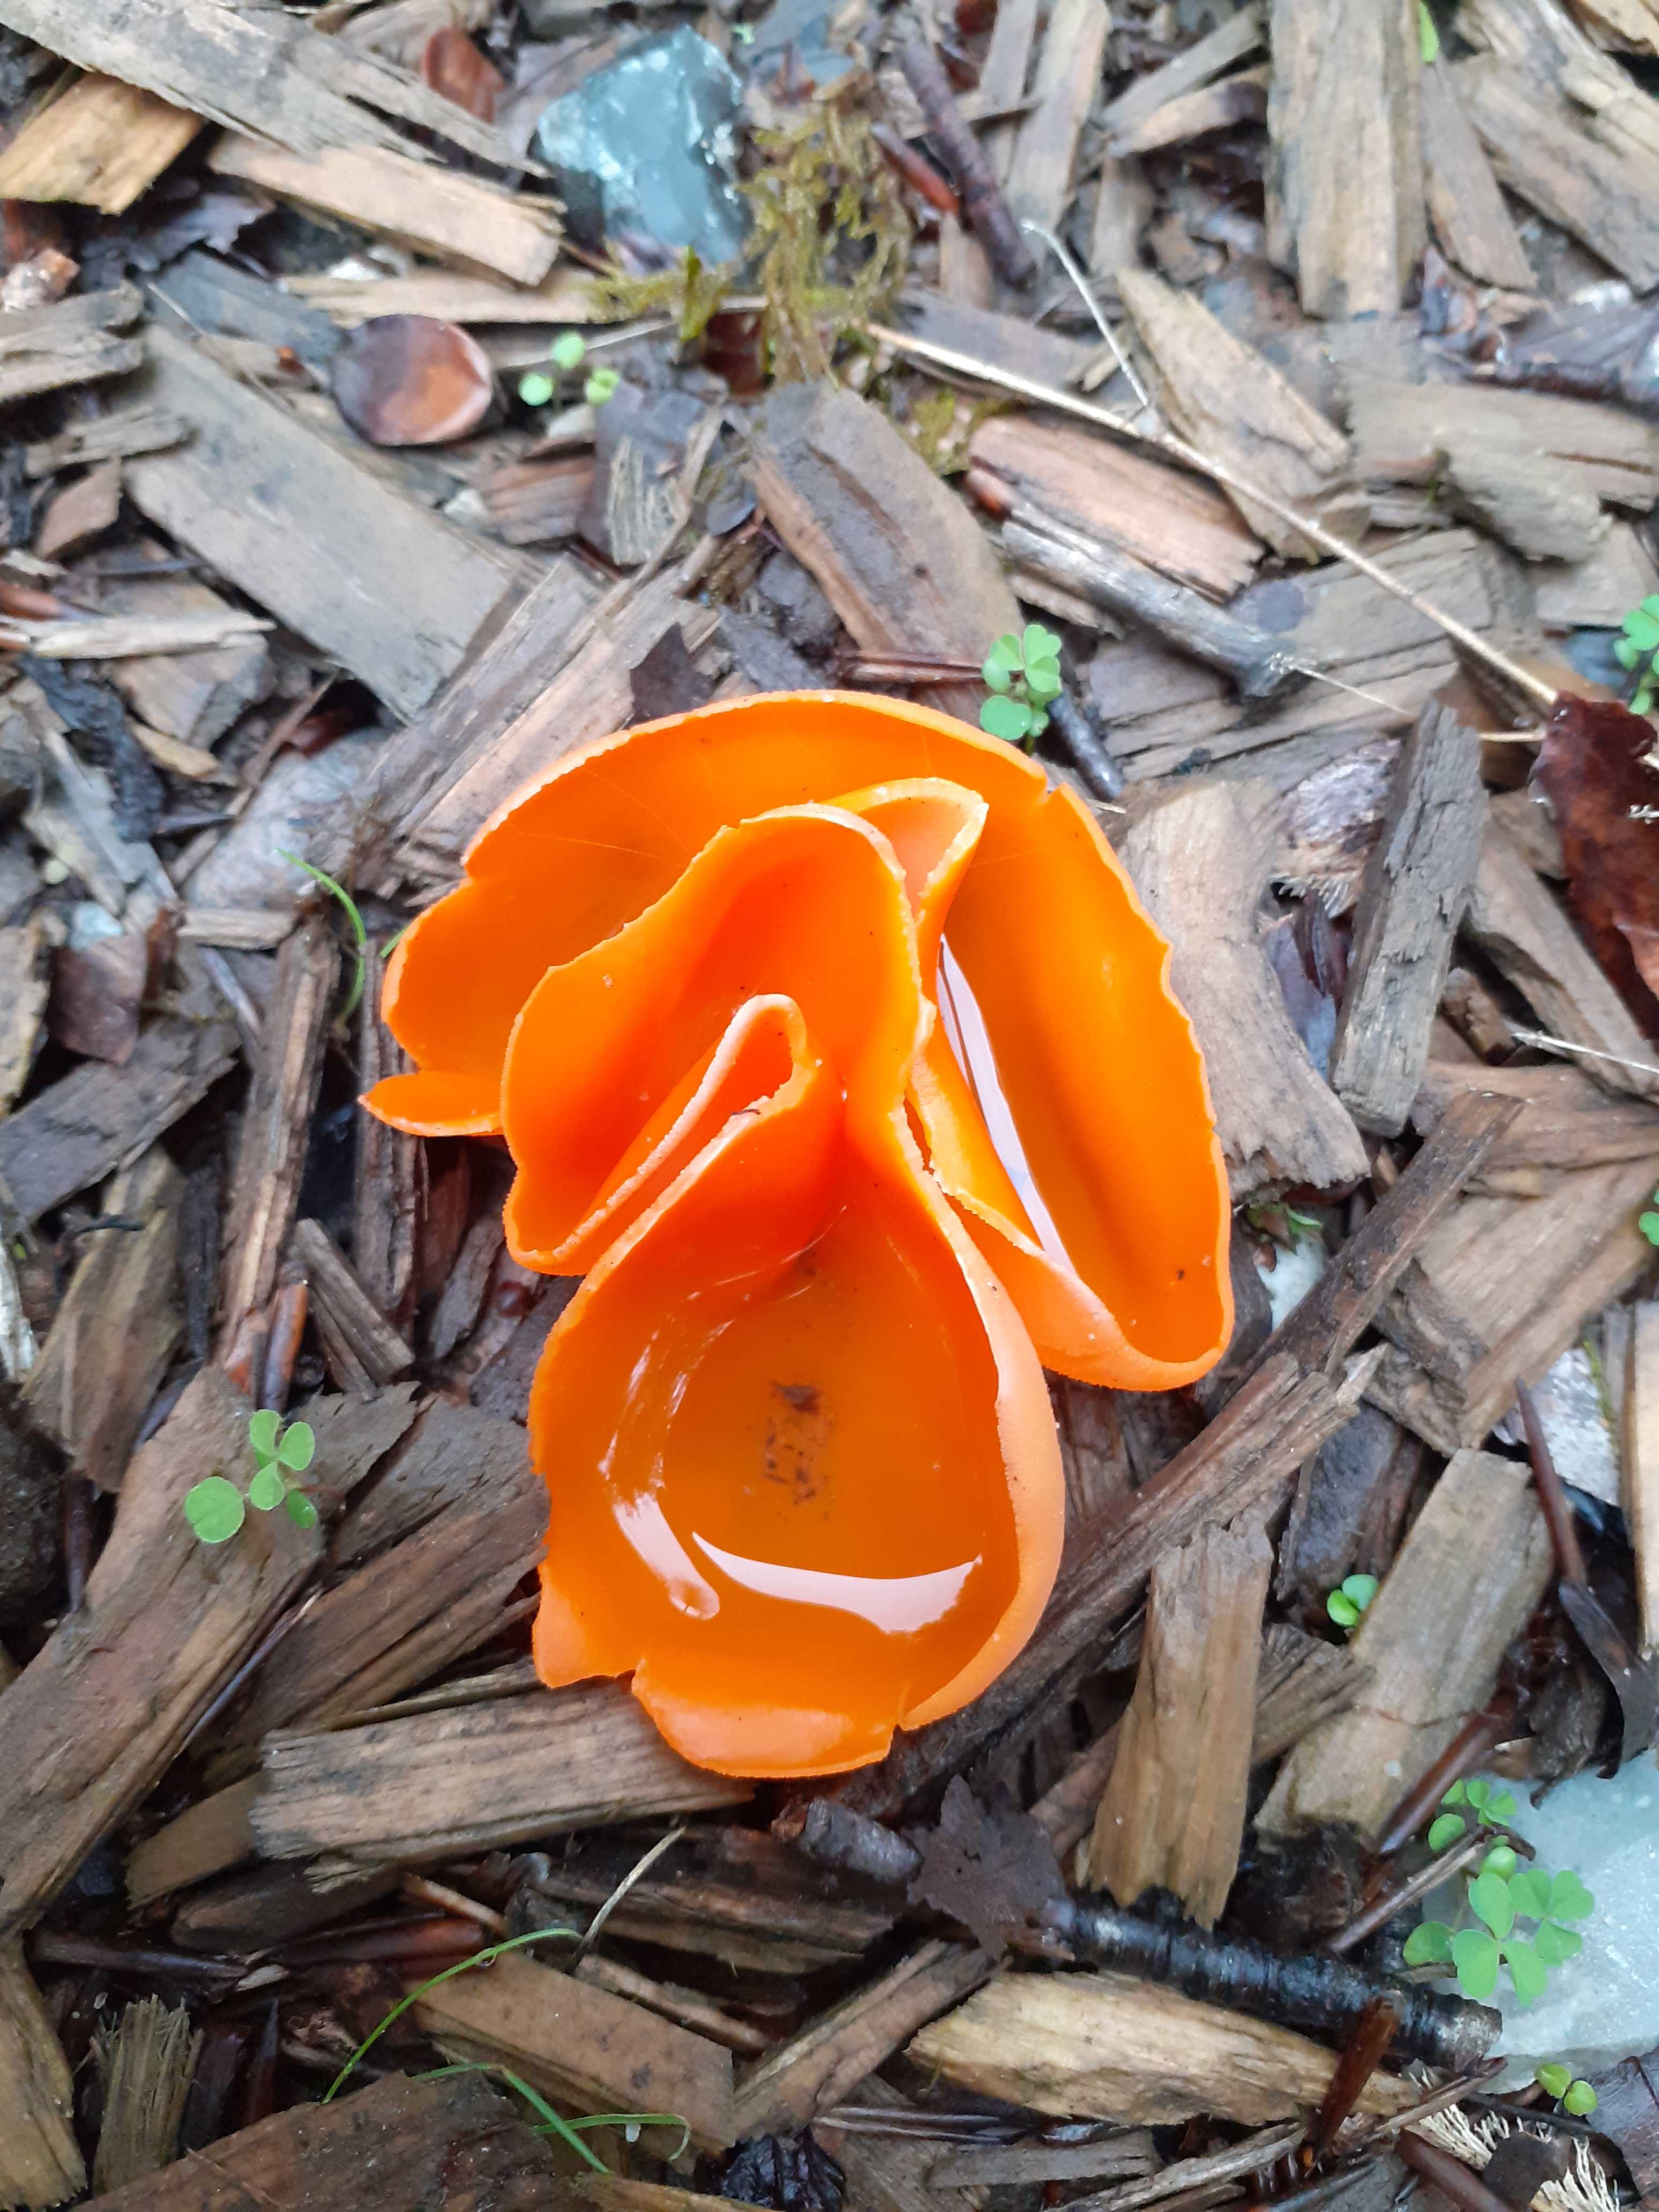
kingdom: Fungi
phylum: Ascomycota
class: Pezizomycetes
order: Pezizales
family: Pyronemataceae
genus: Aleuria
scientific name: Aleuria aurantia
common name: almindelig orangebæger
